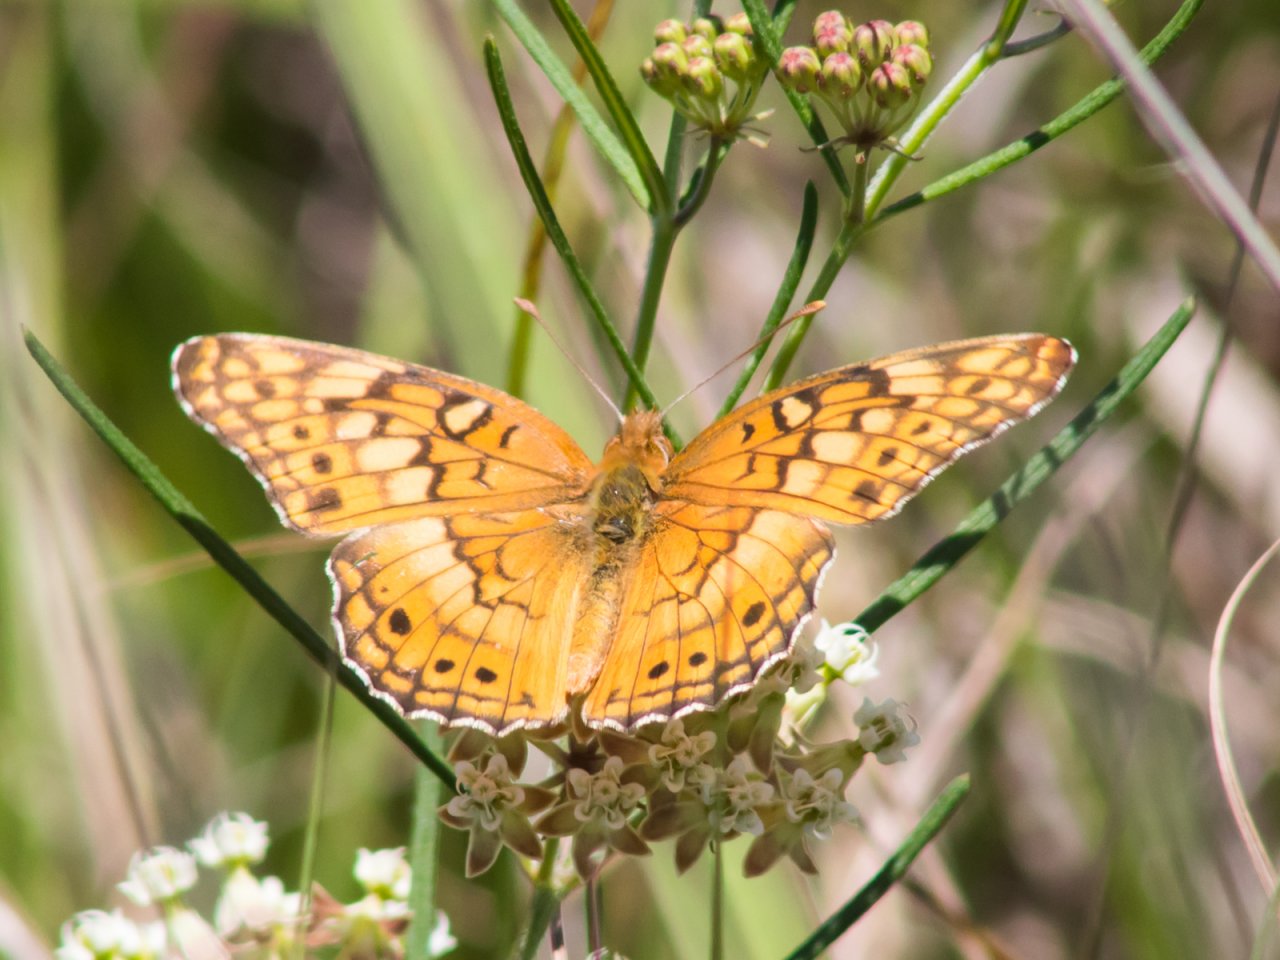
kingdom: Animalia
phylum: Arthropoda
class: Insecta
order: Lepidoptera
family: Nymphalidae
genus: Euptoieta
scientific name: Euptoieta claudia
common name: Variegated Fritillary
